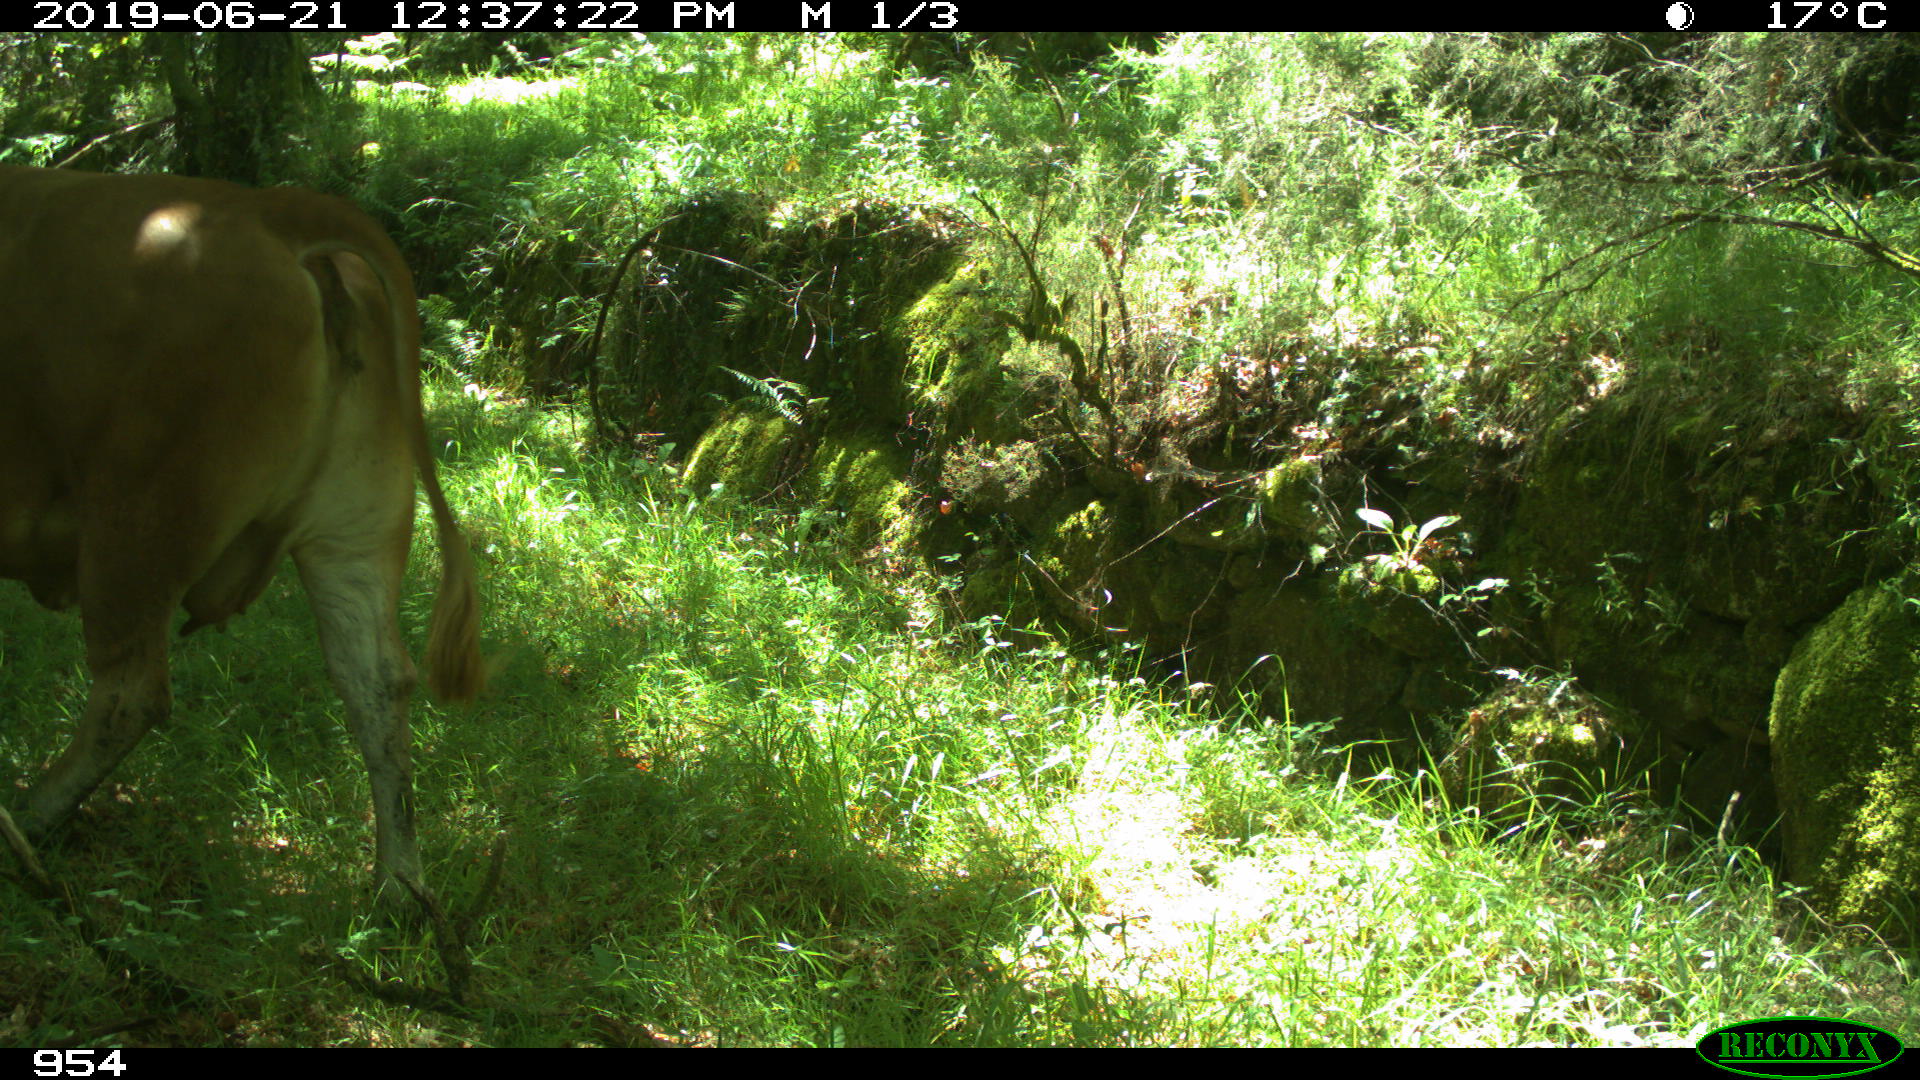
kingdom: Animalia
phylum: Chordata
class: Mammalia
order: Artiodactyla
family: Bovidae
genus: Bos
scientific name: Bos taurus
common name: Domesticated cattle
